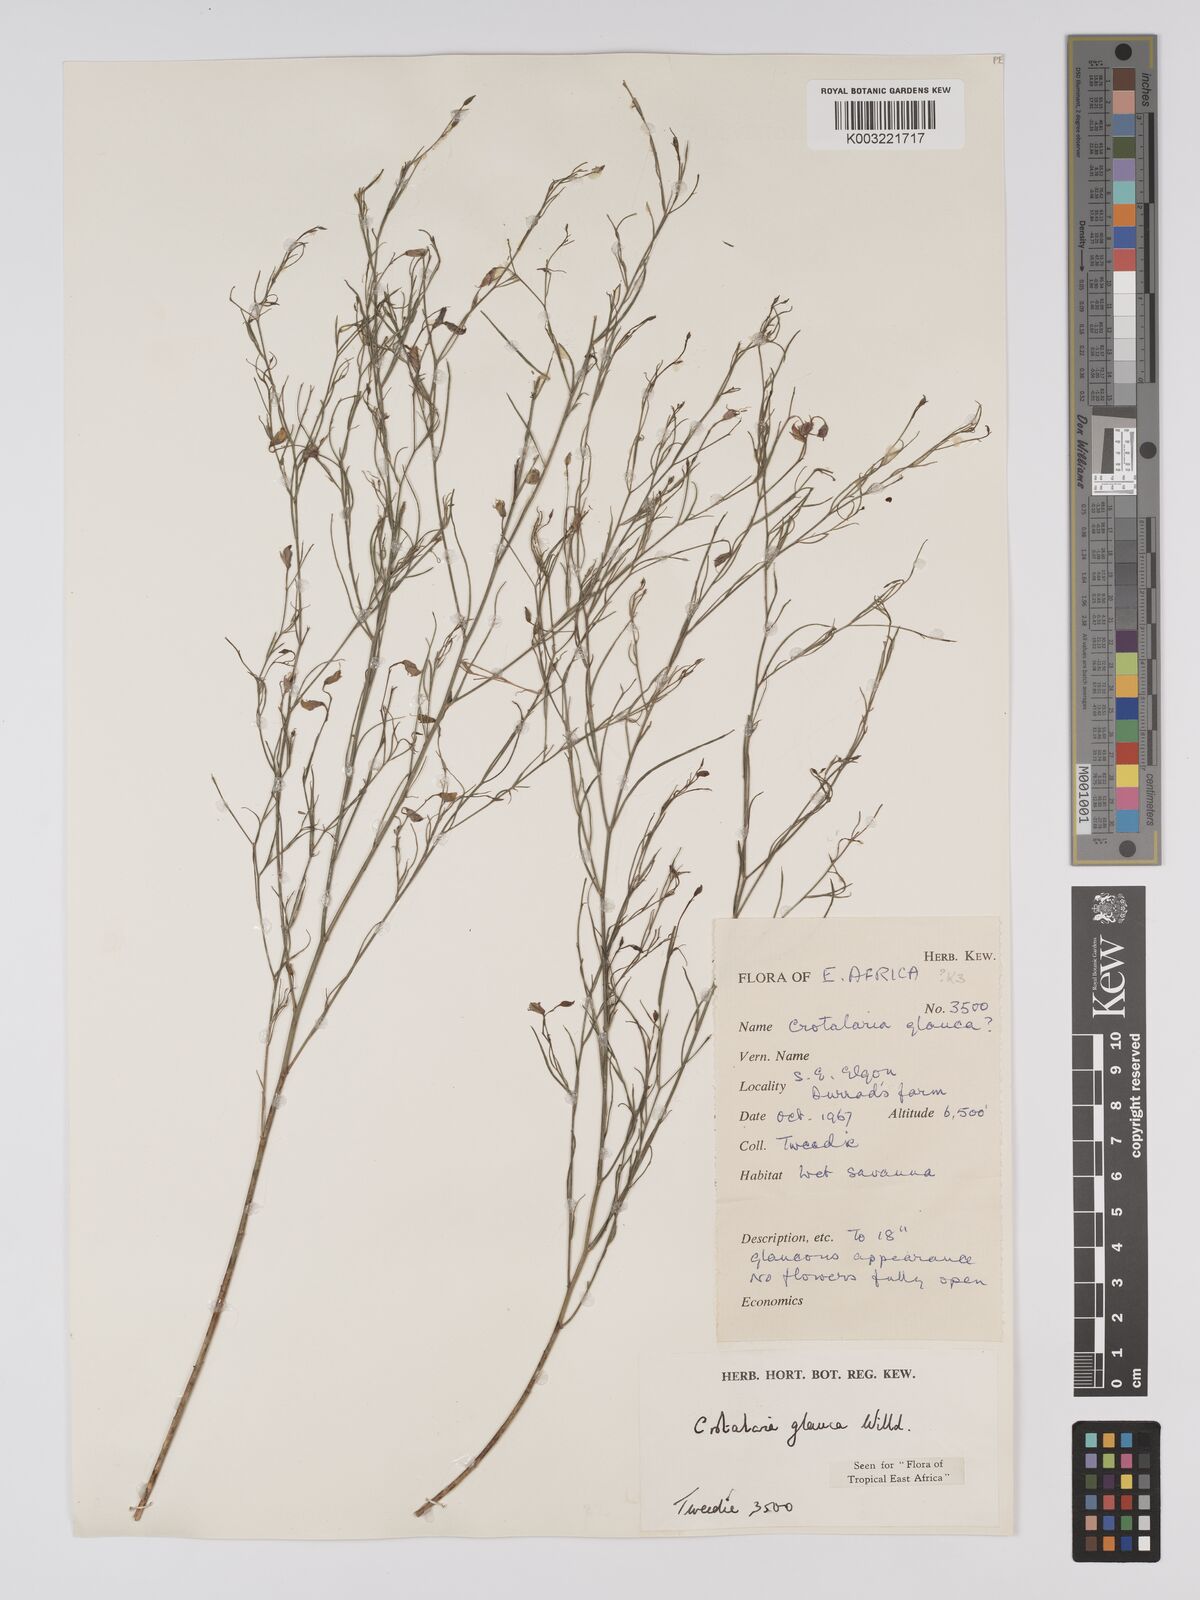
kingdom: Plantae
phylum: Tracheophyta
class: Magnoliopsida
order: Fabales
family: Fabaceae
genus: Crotalaria
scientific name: Crotalaria glauca
